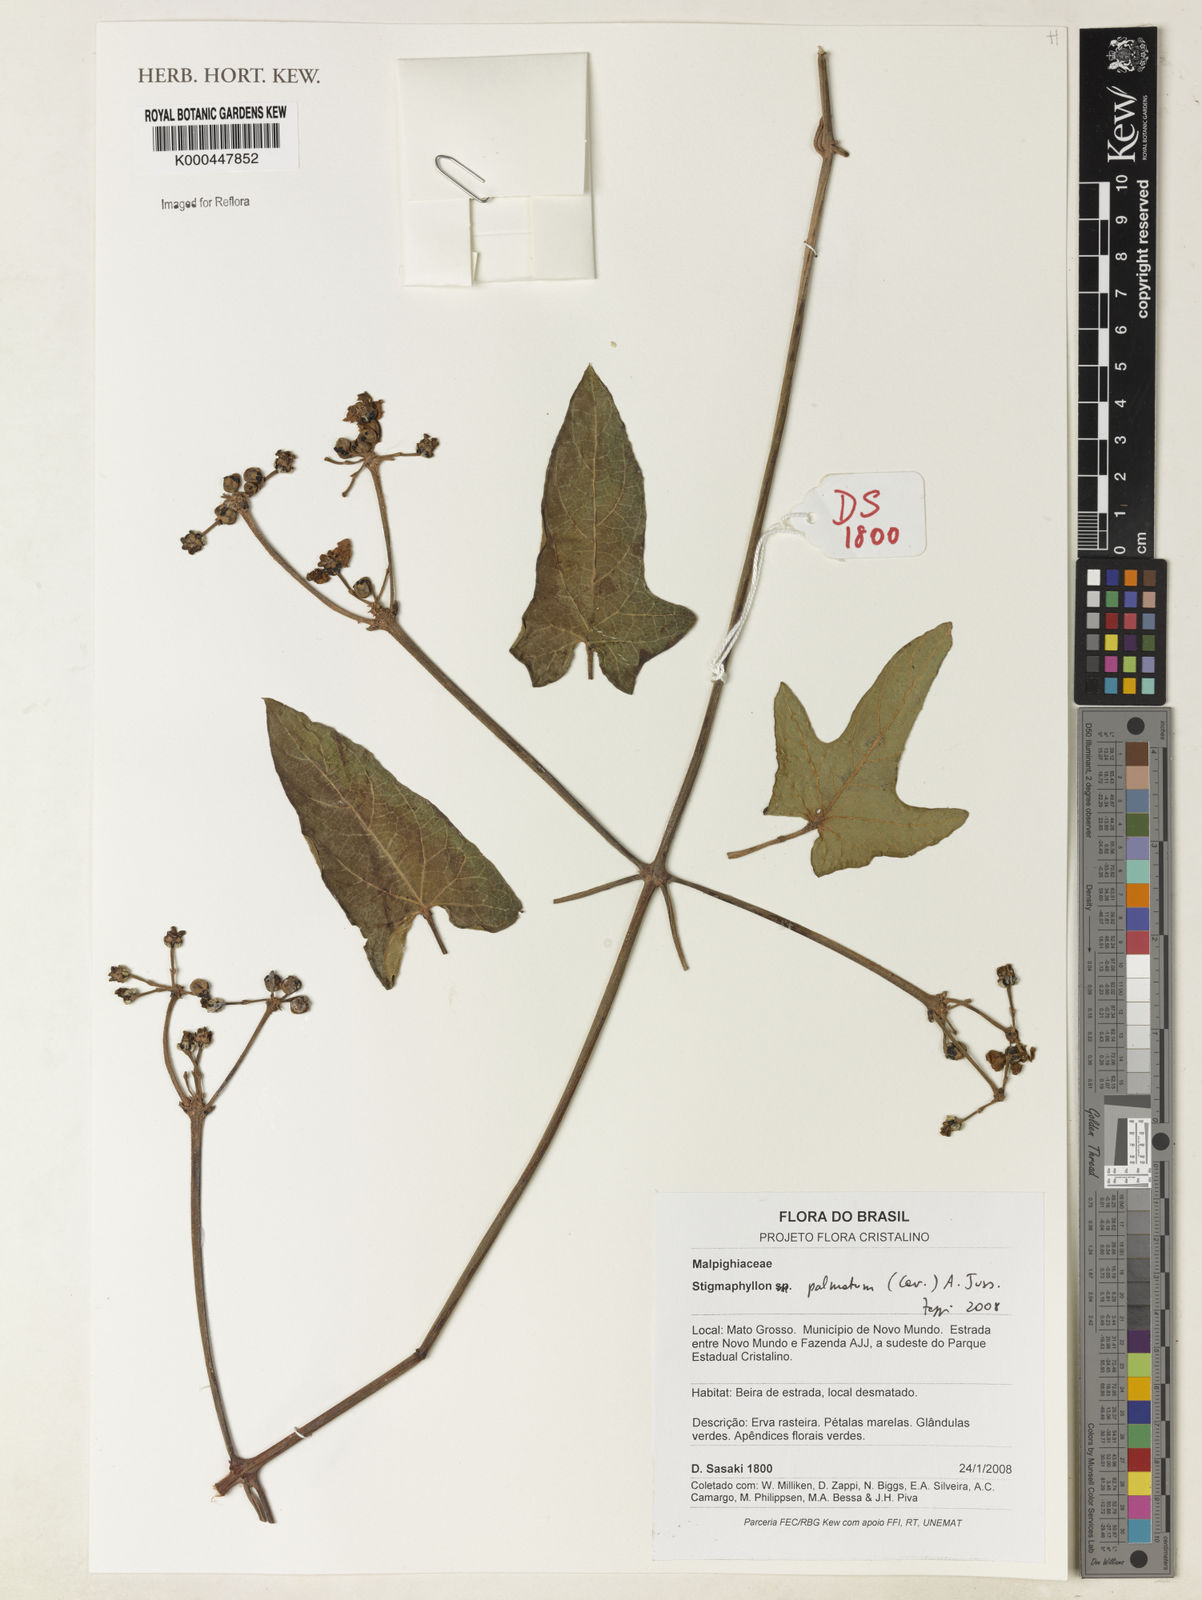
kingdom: Plantae
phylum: Tracheophyta
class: Magnoliopsida
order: Malpighiales
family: Malpighiaceae
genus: Stigmaphyllon
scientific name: Stigmaphyllon palmatum
